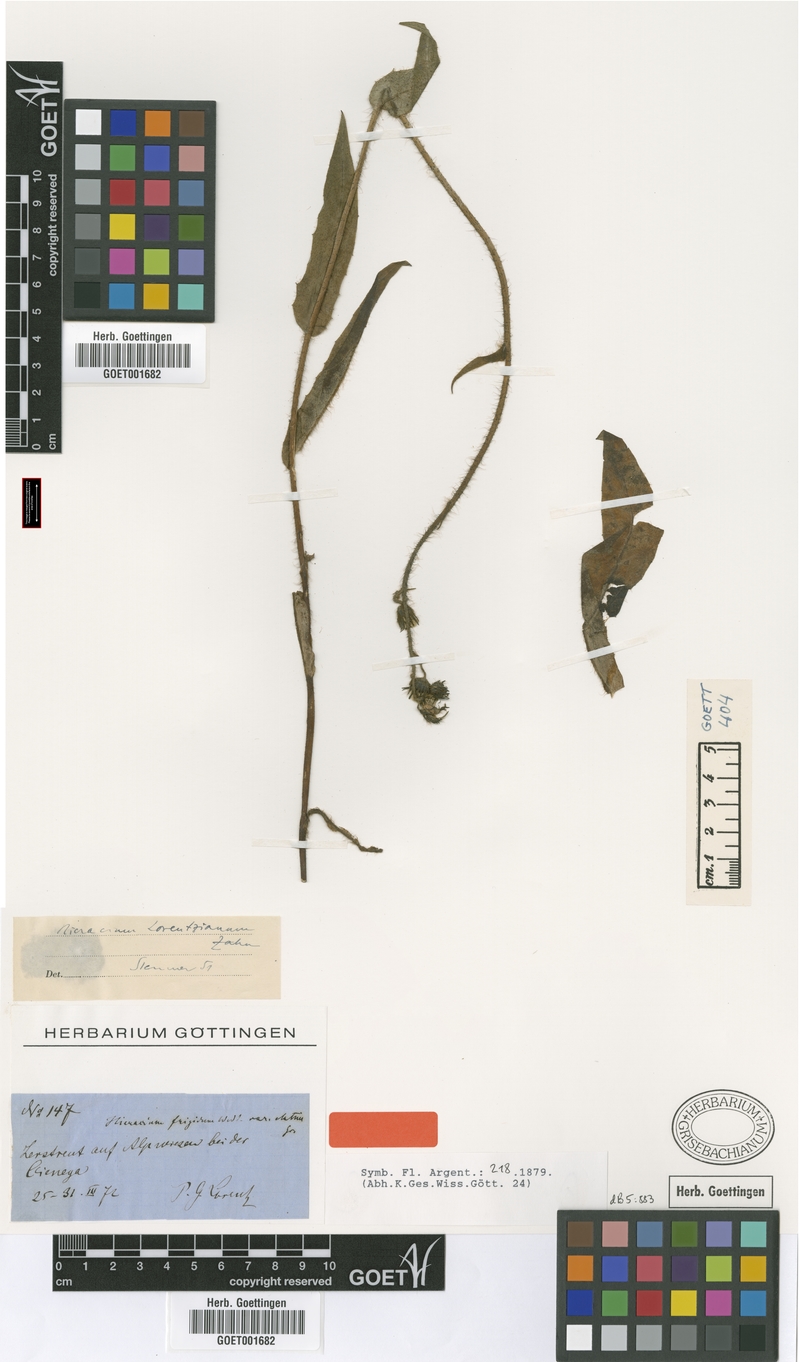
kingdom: Plantae
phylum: Tracheophyta
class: Magnoliopsida
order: Asterales
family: Asteraceae
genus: Hieracium
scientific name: Hieracium lorentzianum
